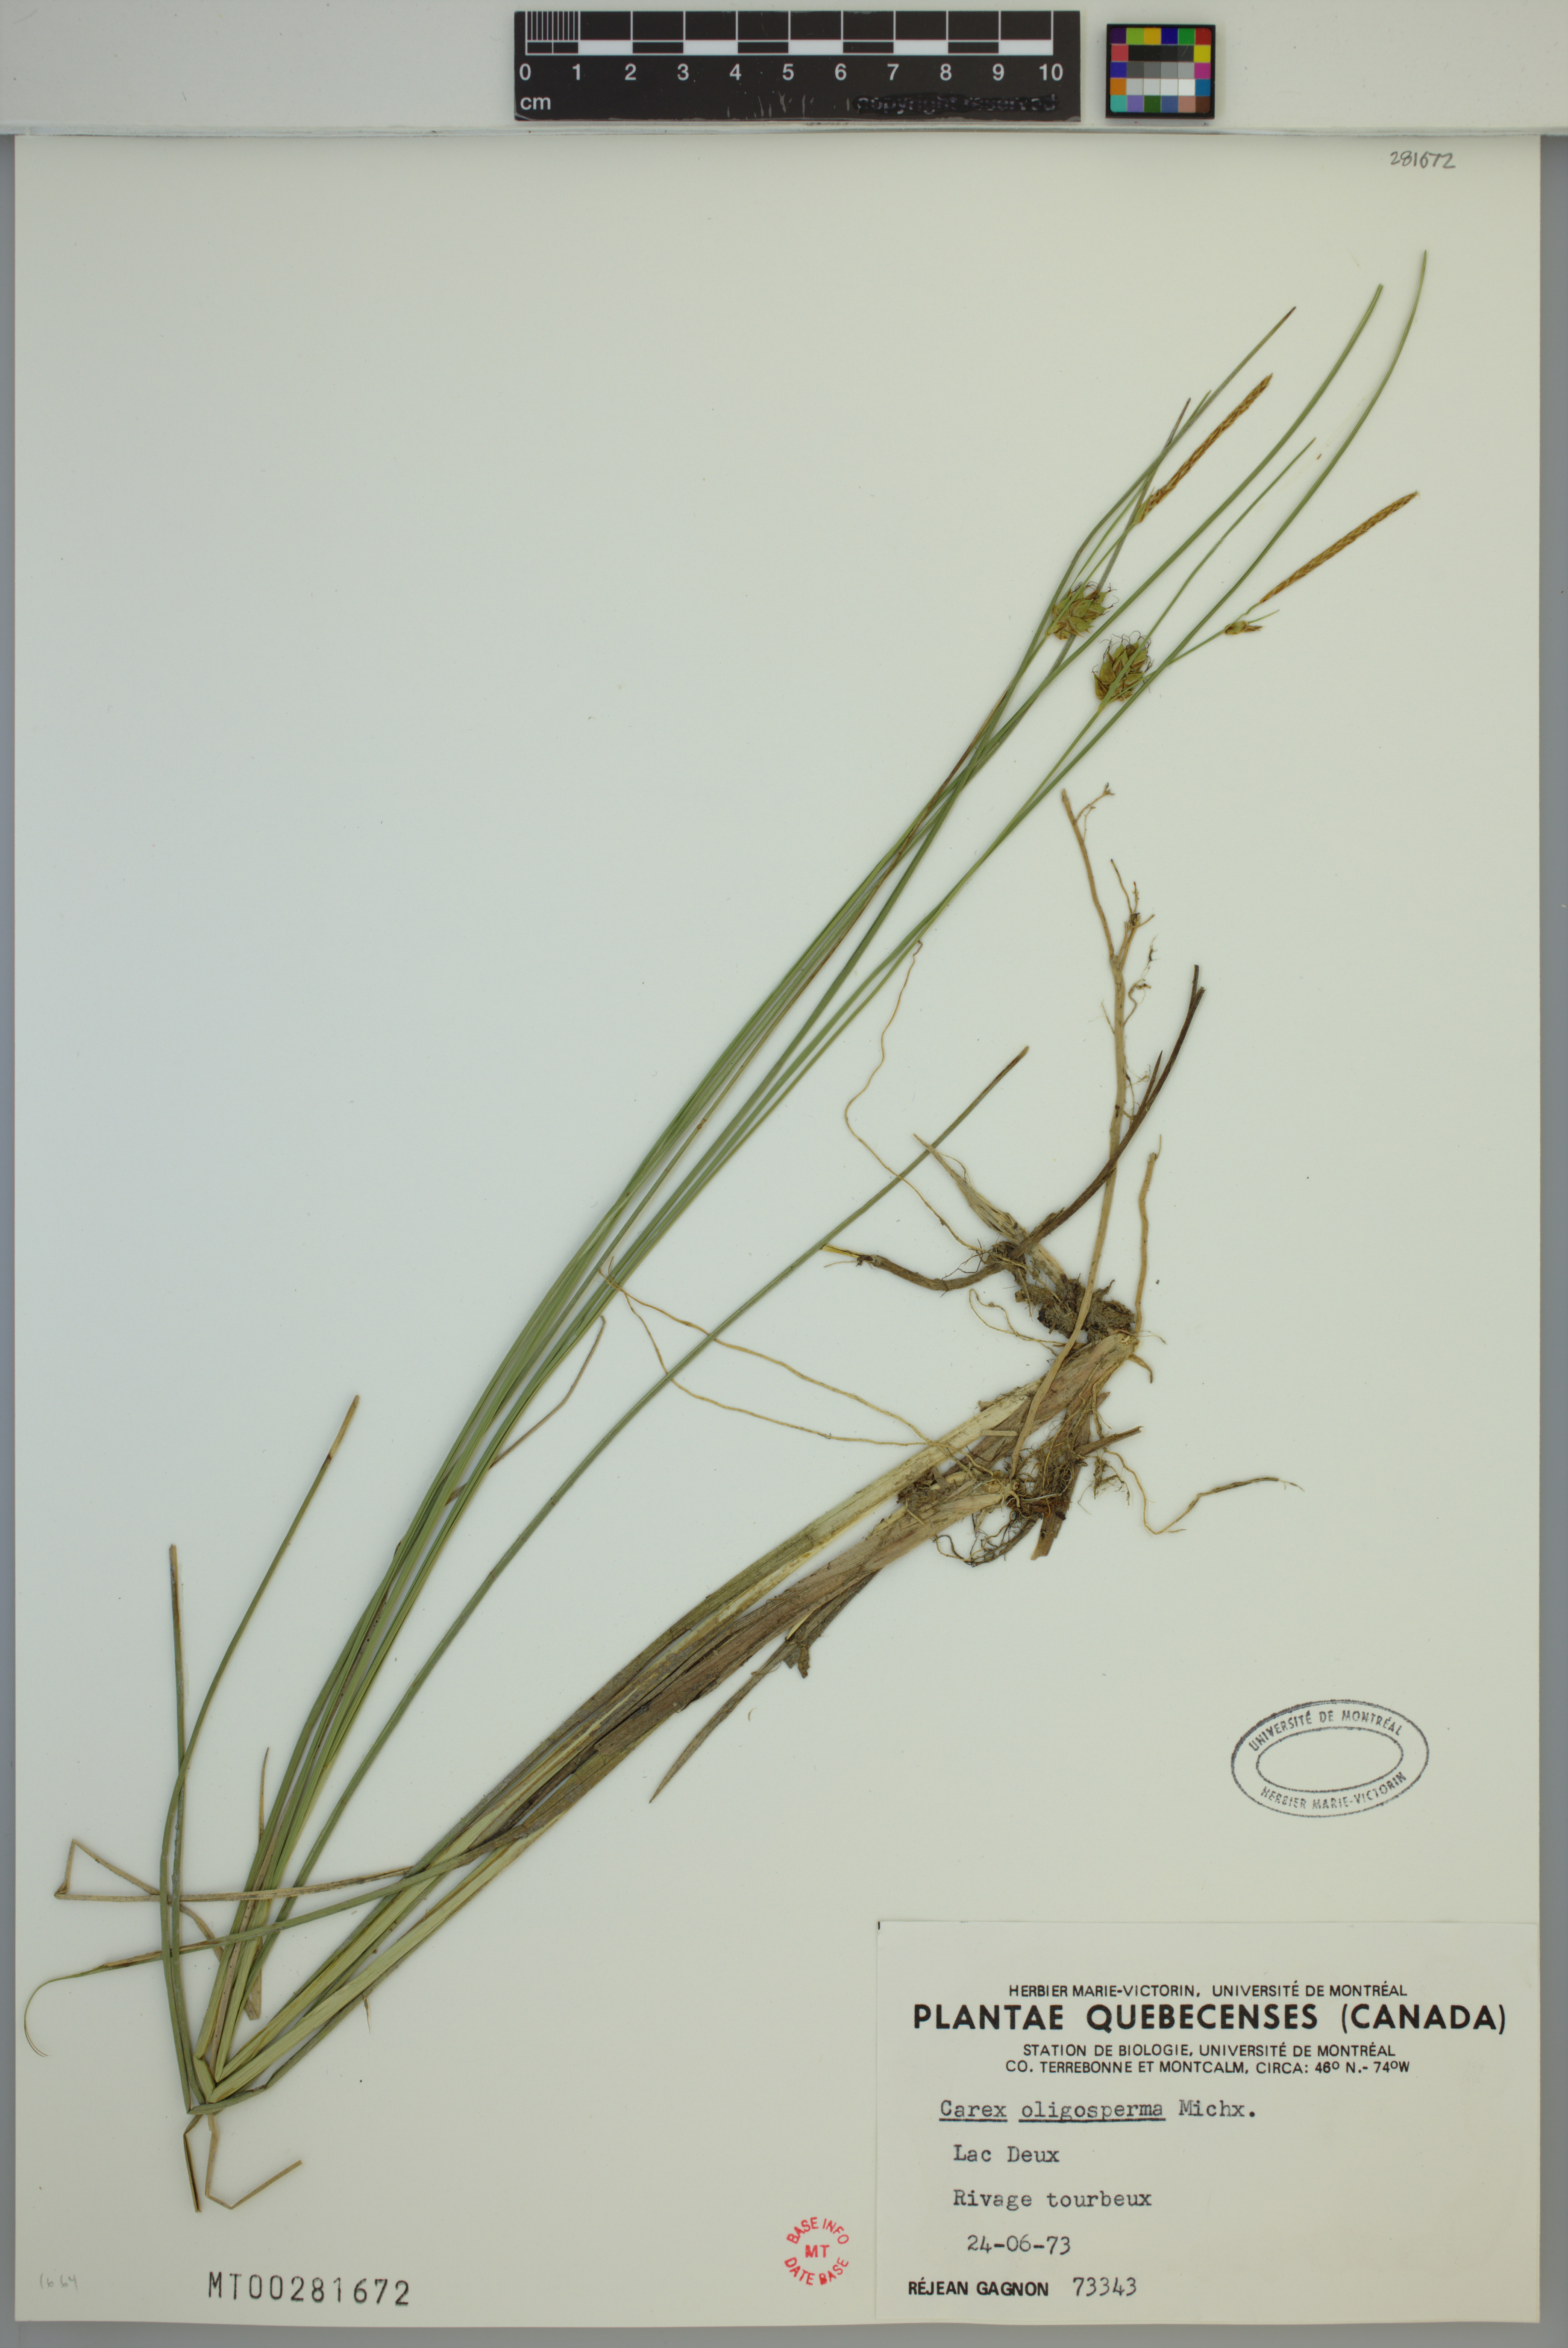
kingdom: Plantae
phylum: Tracheophyta
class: Liliopsida
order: Poales
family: Cyperaceae
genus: Carex
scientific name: Carex oligosperma
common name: Few-seed sedge
